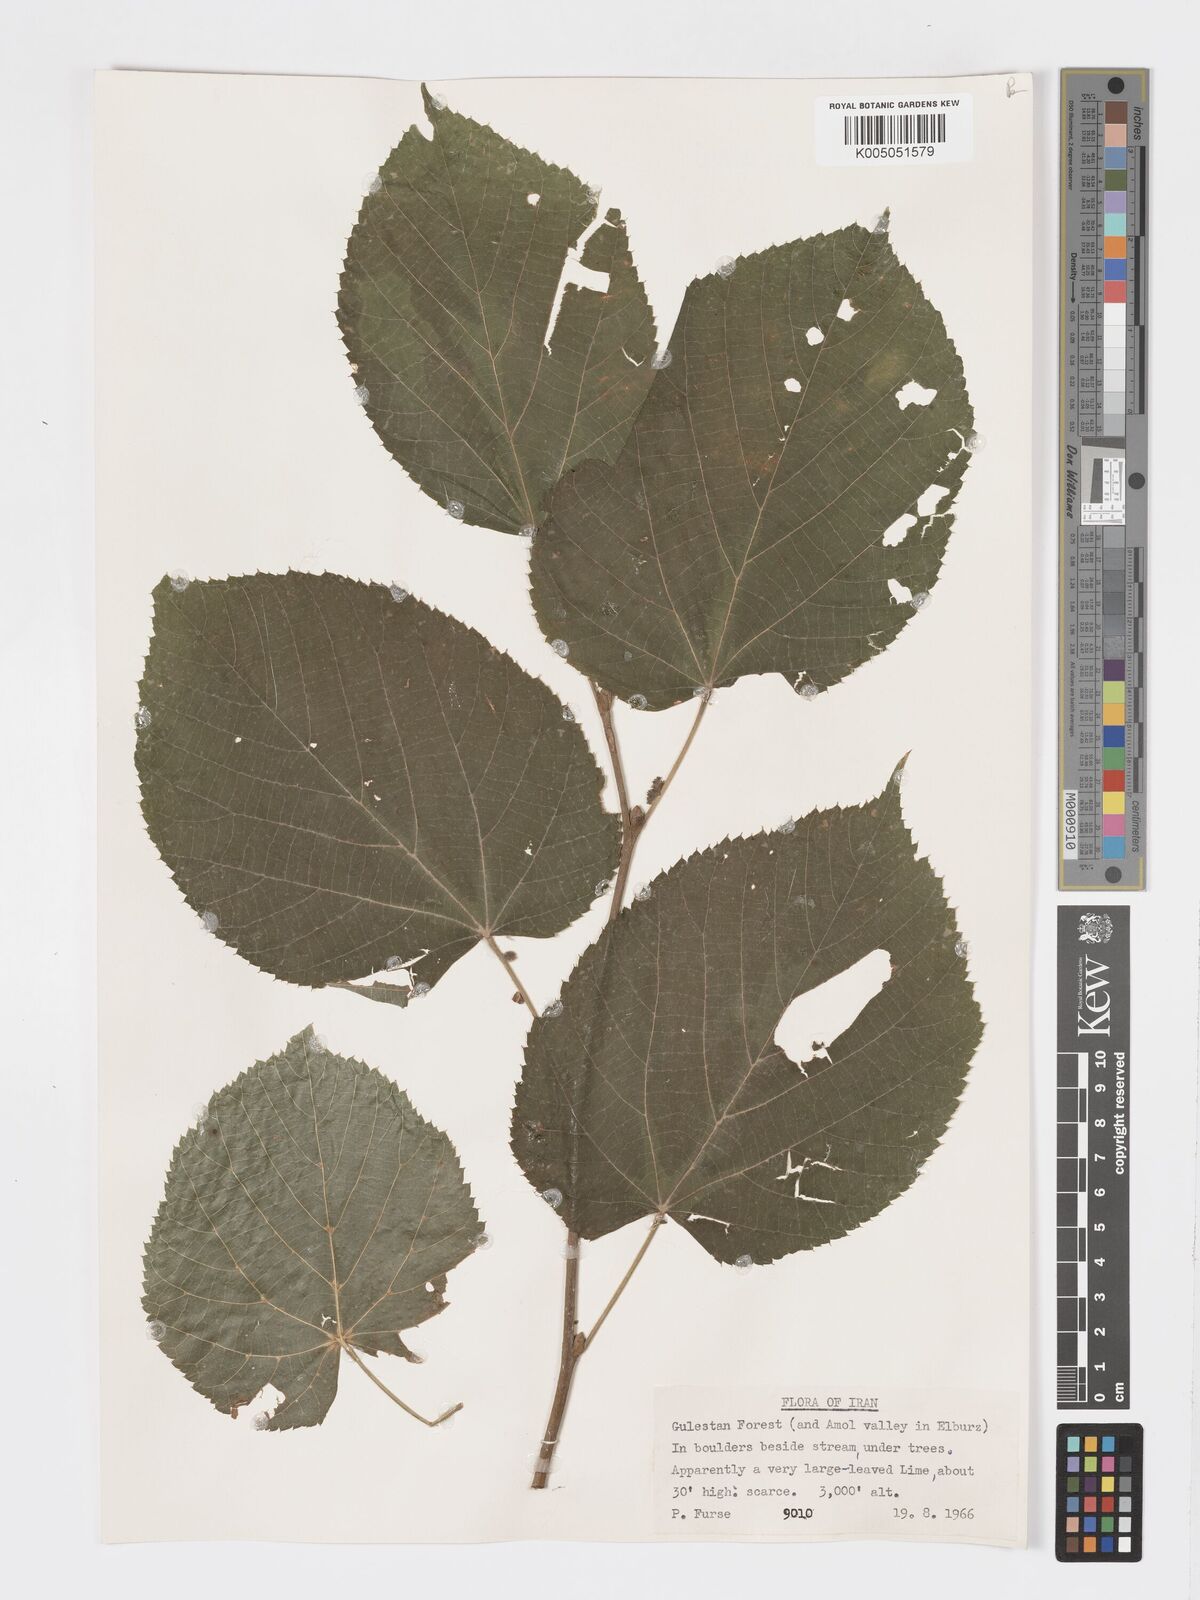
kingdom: Plantae
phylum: Tracheophyta
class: Magnoliopsida
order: Malvales
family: Malvaceae
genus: Tilia
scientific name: Tilia
